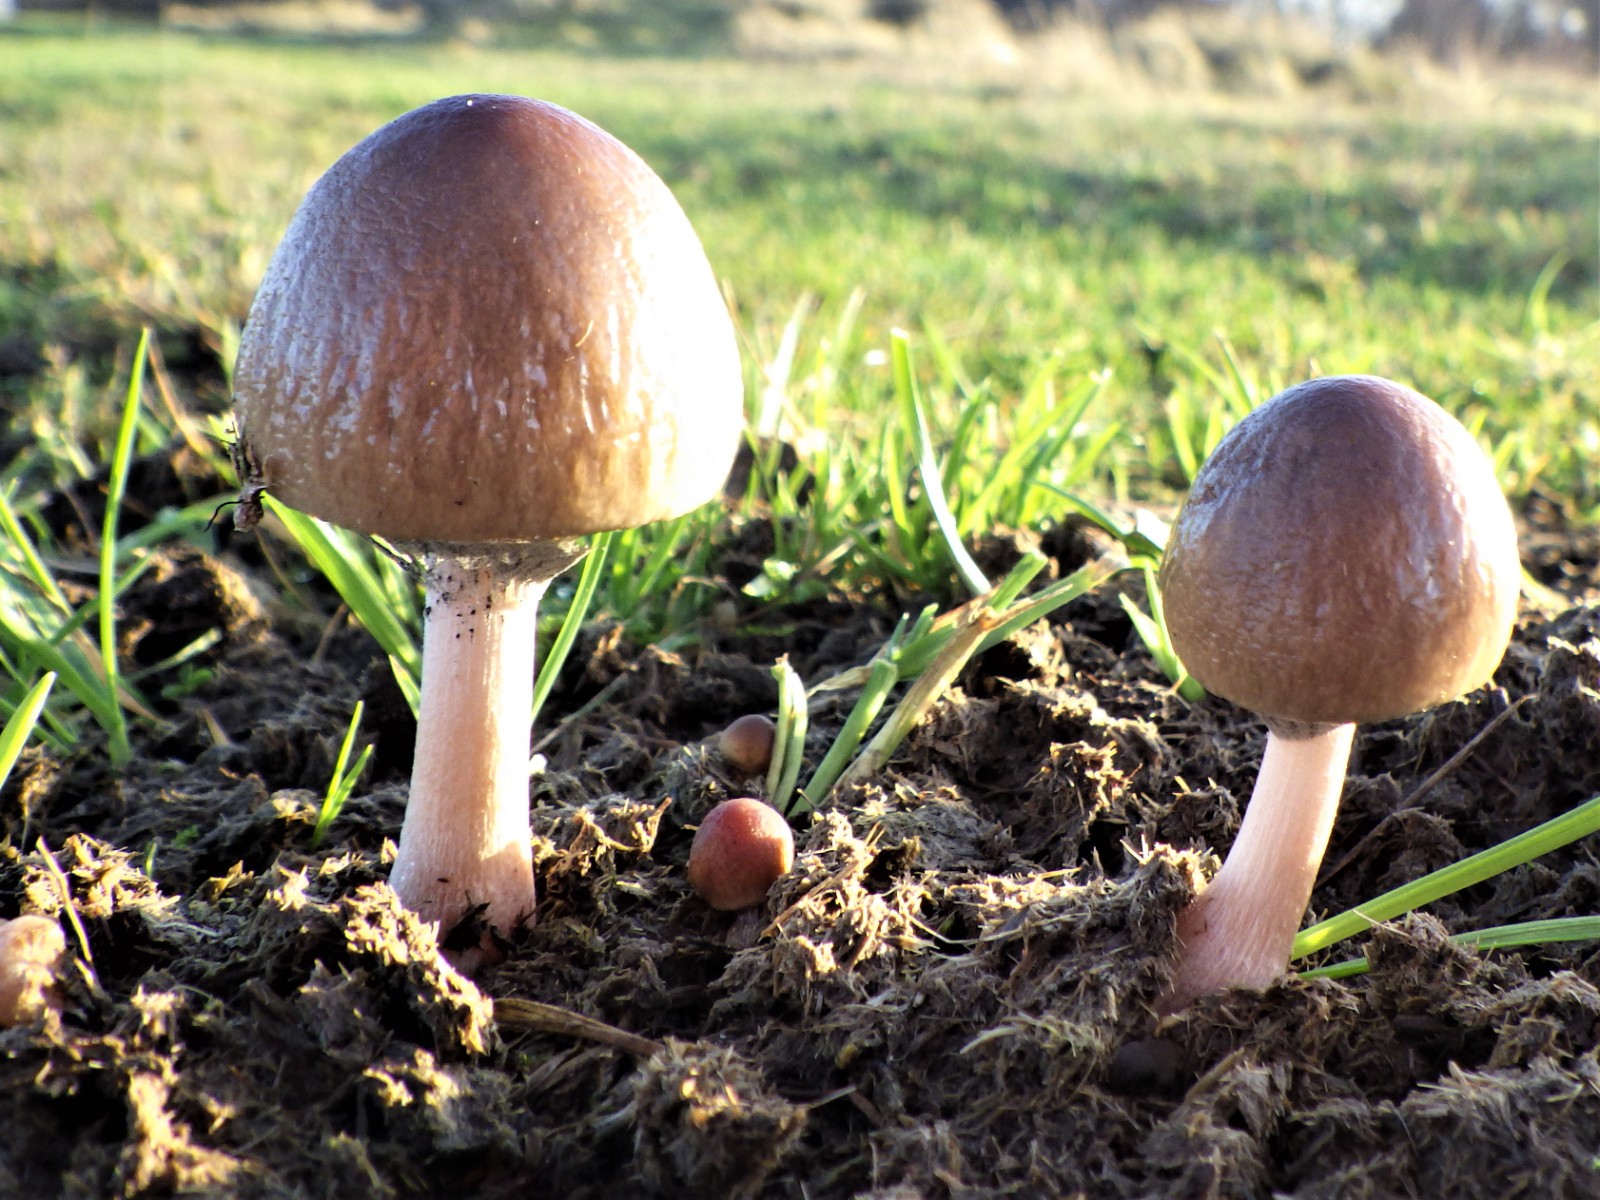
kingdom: Fungi
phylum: Basidiomycota
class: Agaricomycetes
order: Agaricales
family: Bolbitiaceae
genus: Panaeolus
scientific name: Panaeolus semiovatus
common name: ring-glanshat
